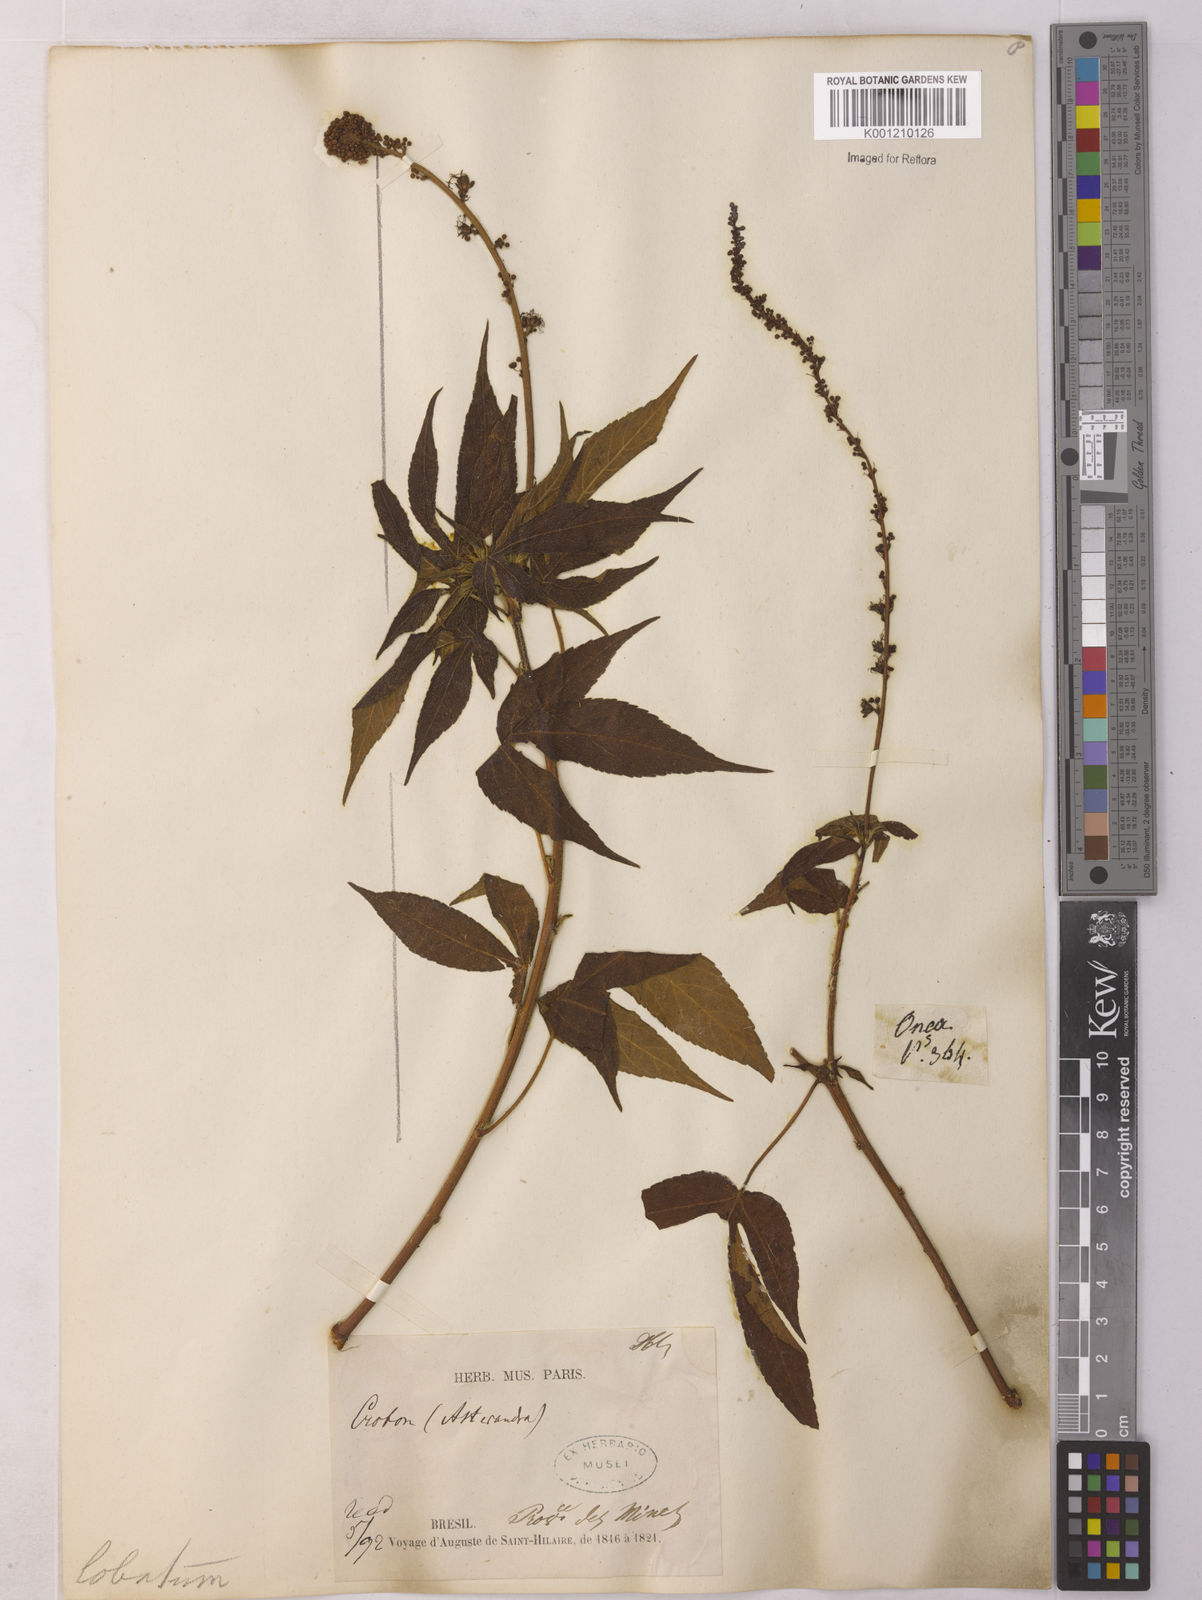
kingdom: Plantae
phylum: Tracheophyta
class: Magnoliopsida
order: Malpighiales
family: Euphorbiaceae
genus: Astraea
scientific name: Astraea macroura
